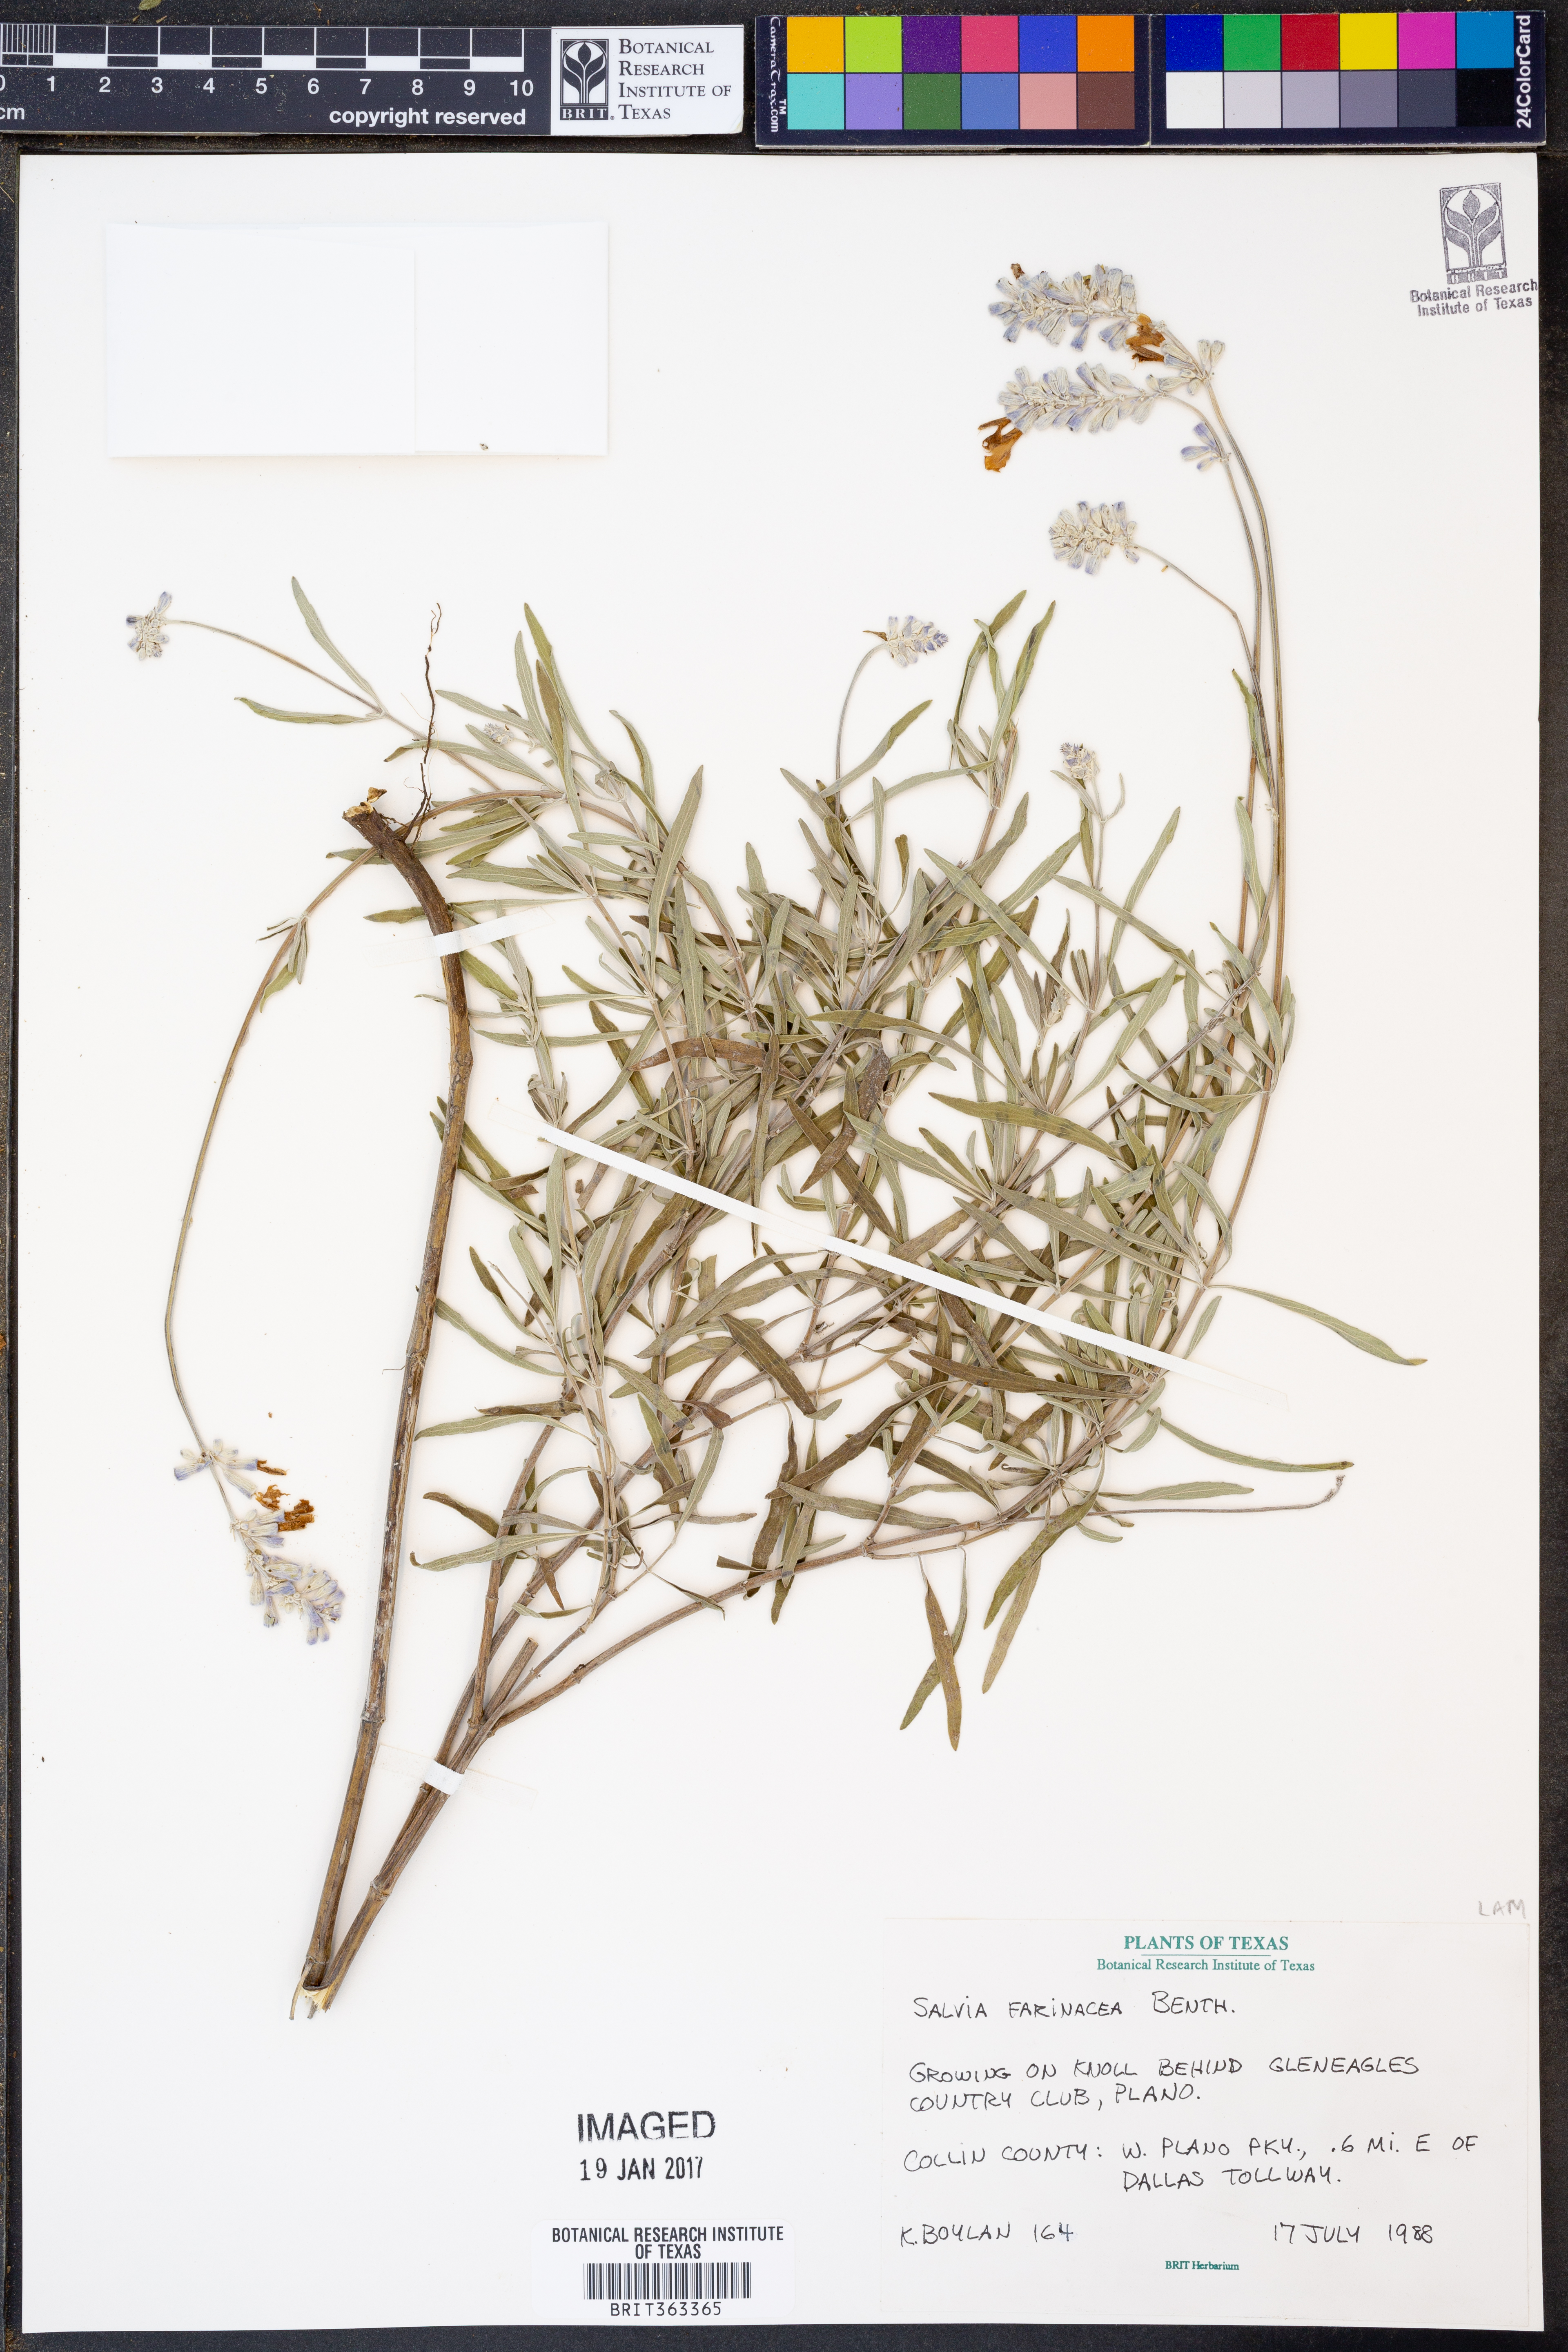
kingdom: Plantae
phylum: Tracheophyta
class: Magnoliopsida
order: Lamiales
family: Lamiaceae
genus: Salvia
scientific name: Salvia farinacea
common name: Mealy sage
